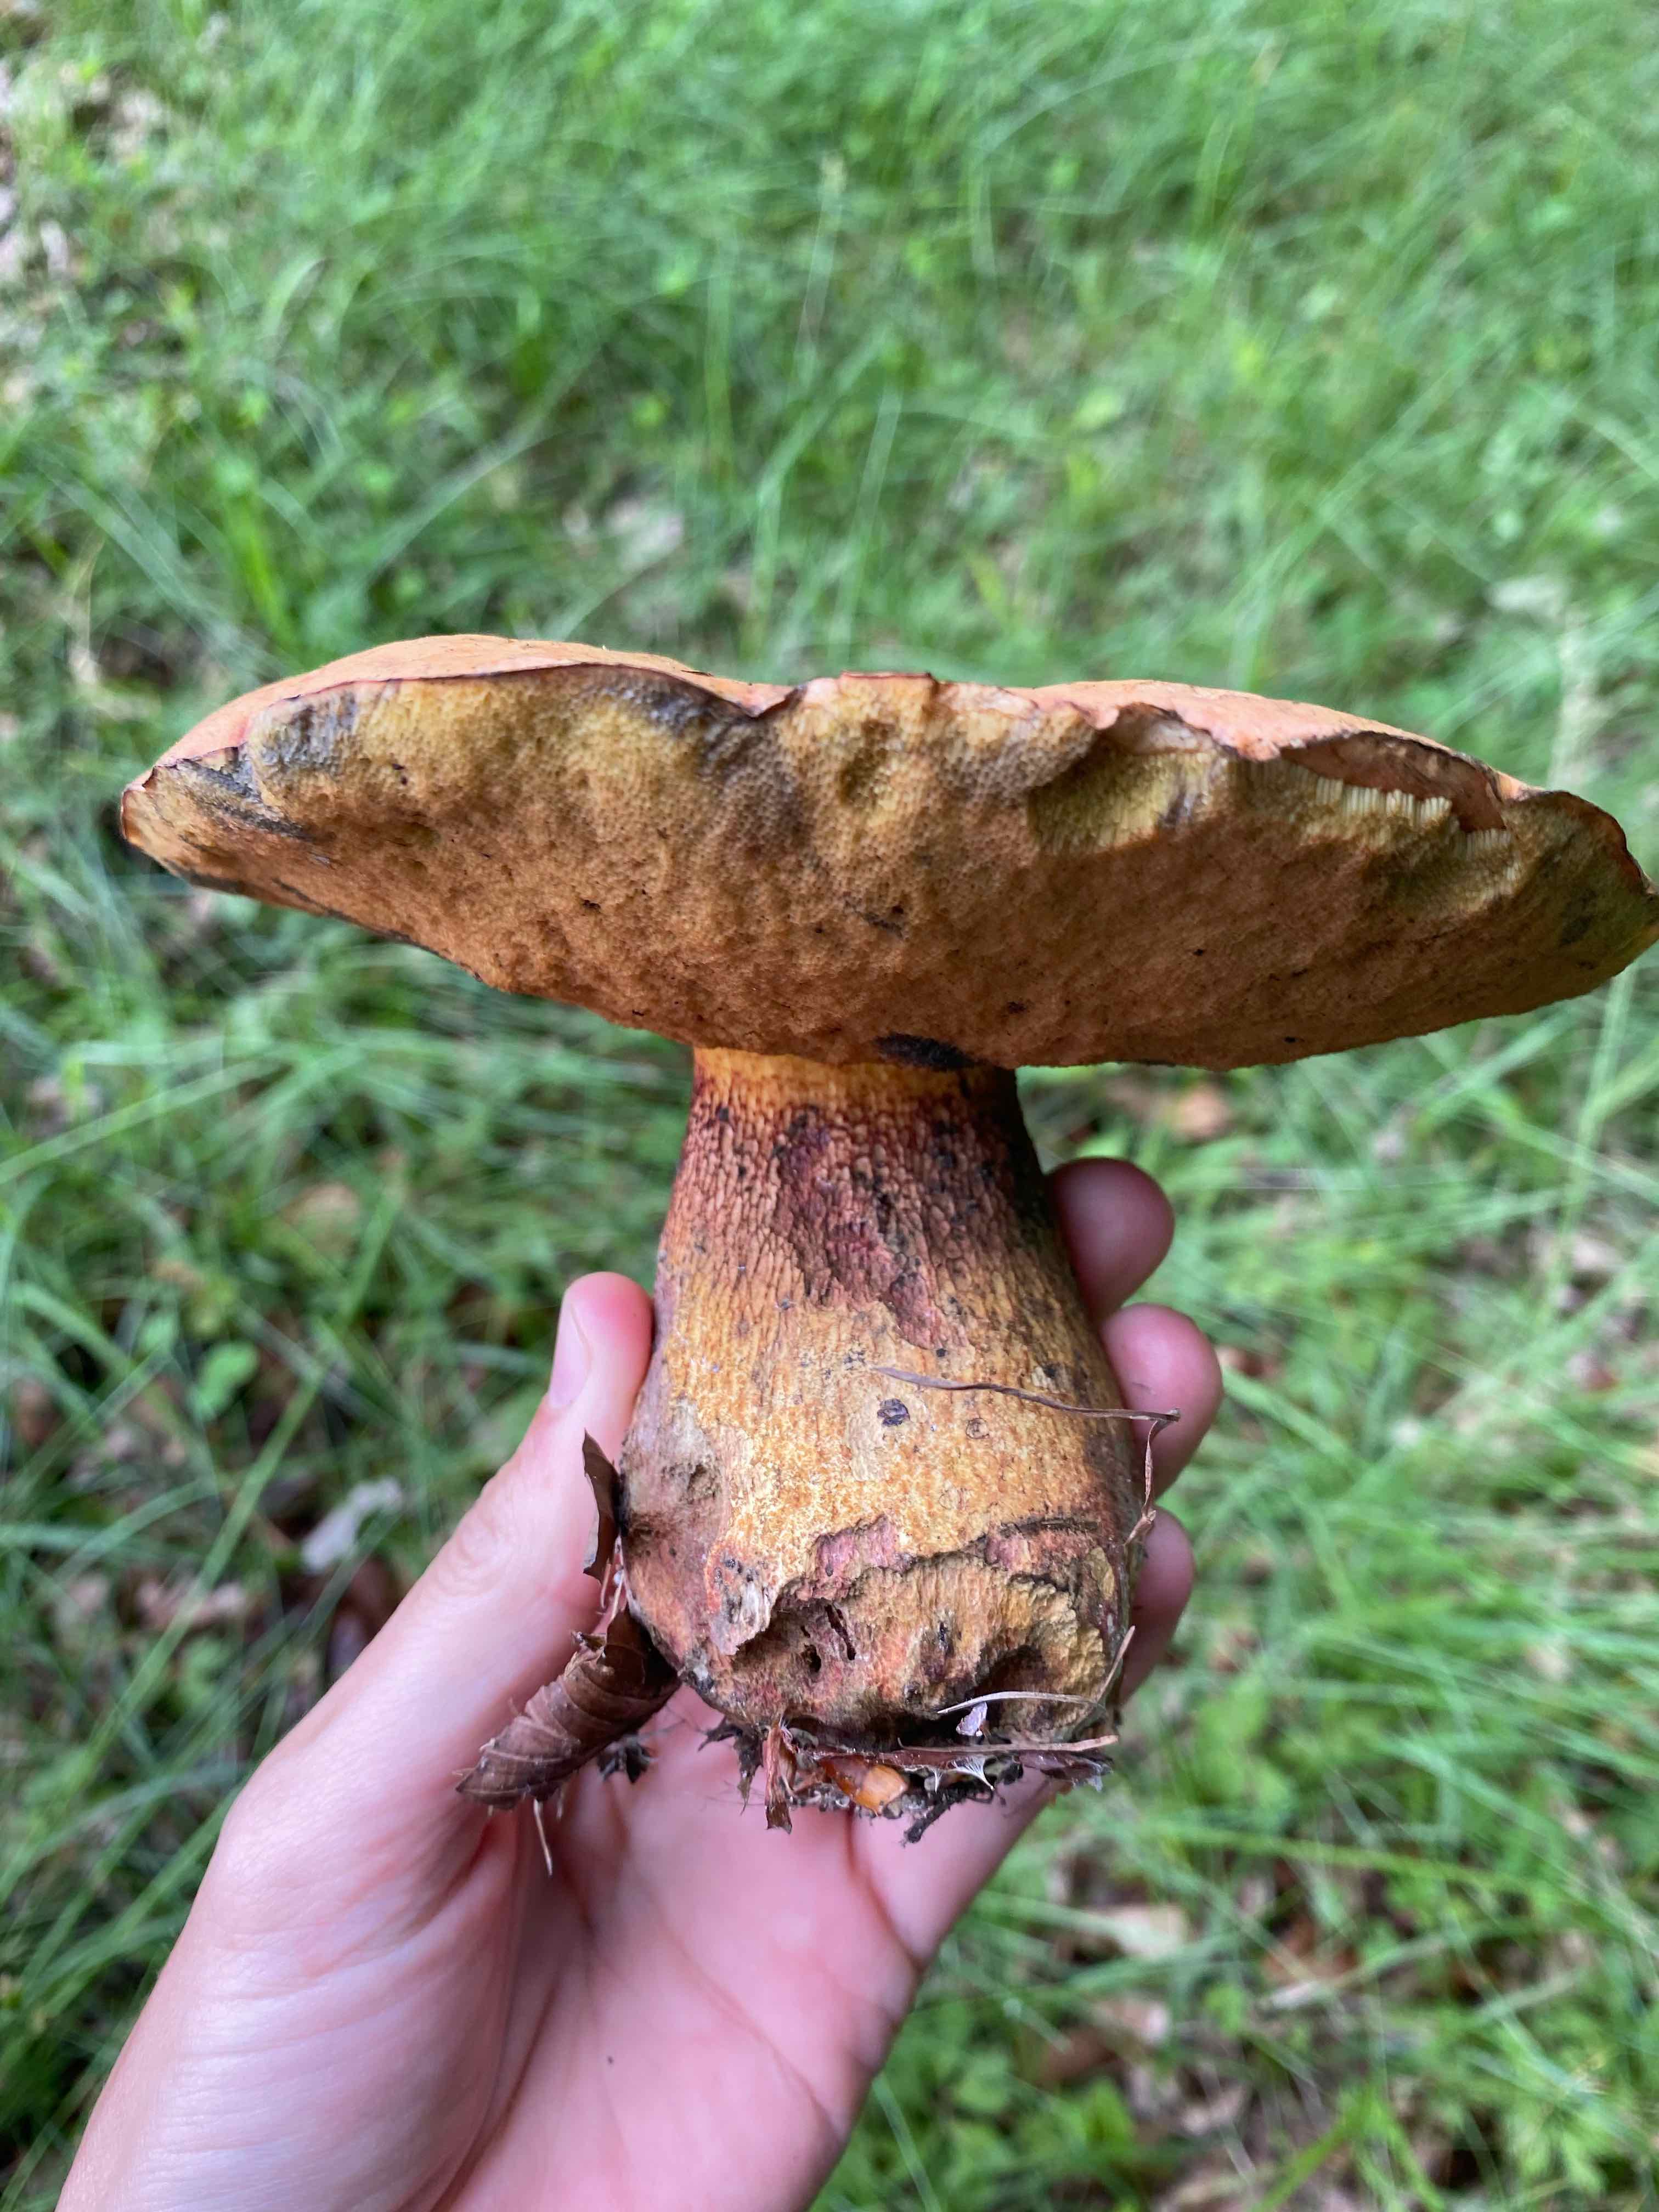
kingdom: Fungi
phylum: Basidiomycota
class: Agaricomycetes
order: Boletales
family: Boletaceae
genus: Suillellus
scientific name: Suillellus luridus
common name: netstokket indigorørhat
